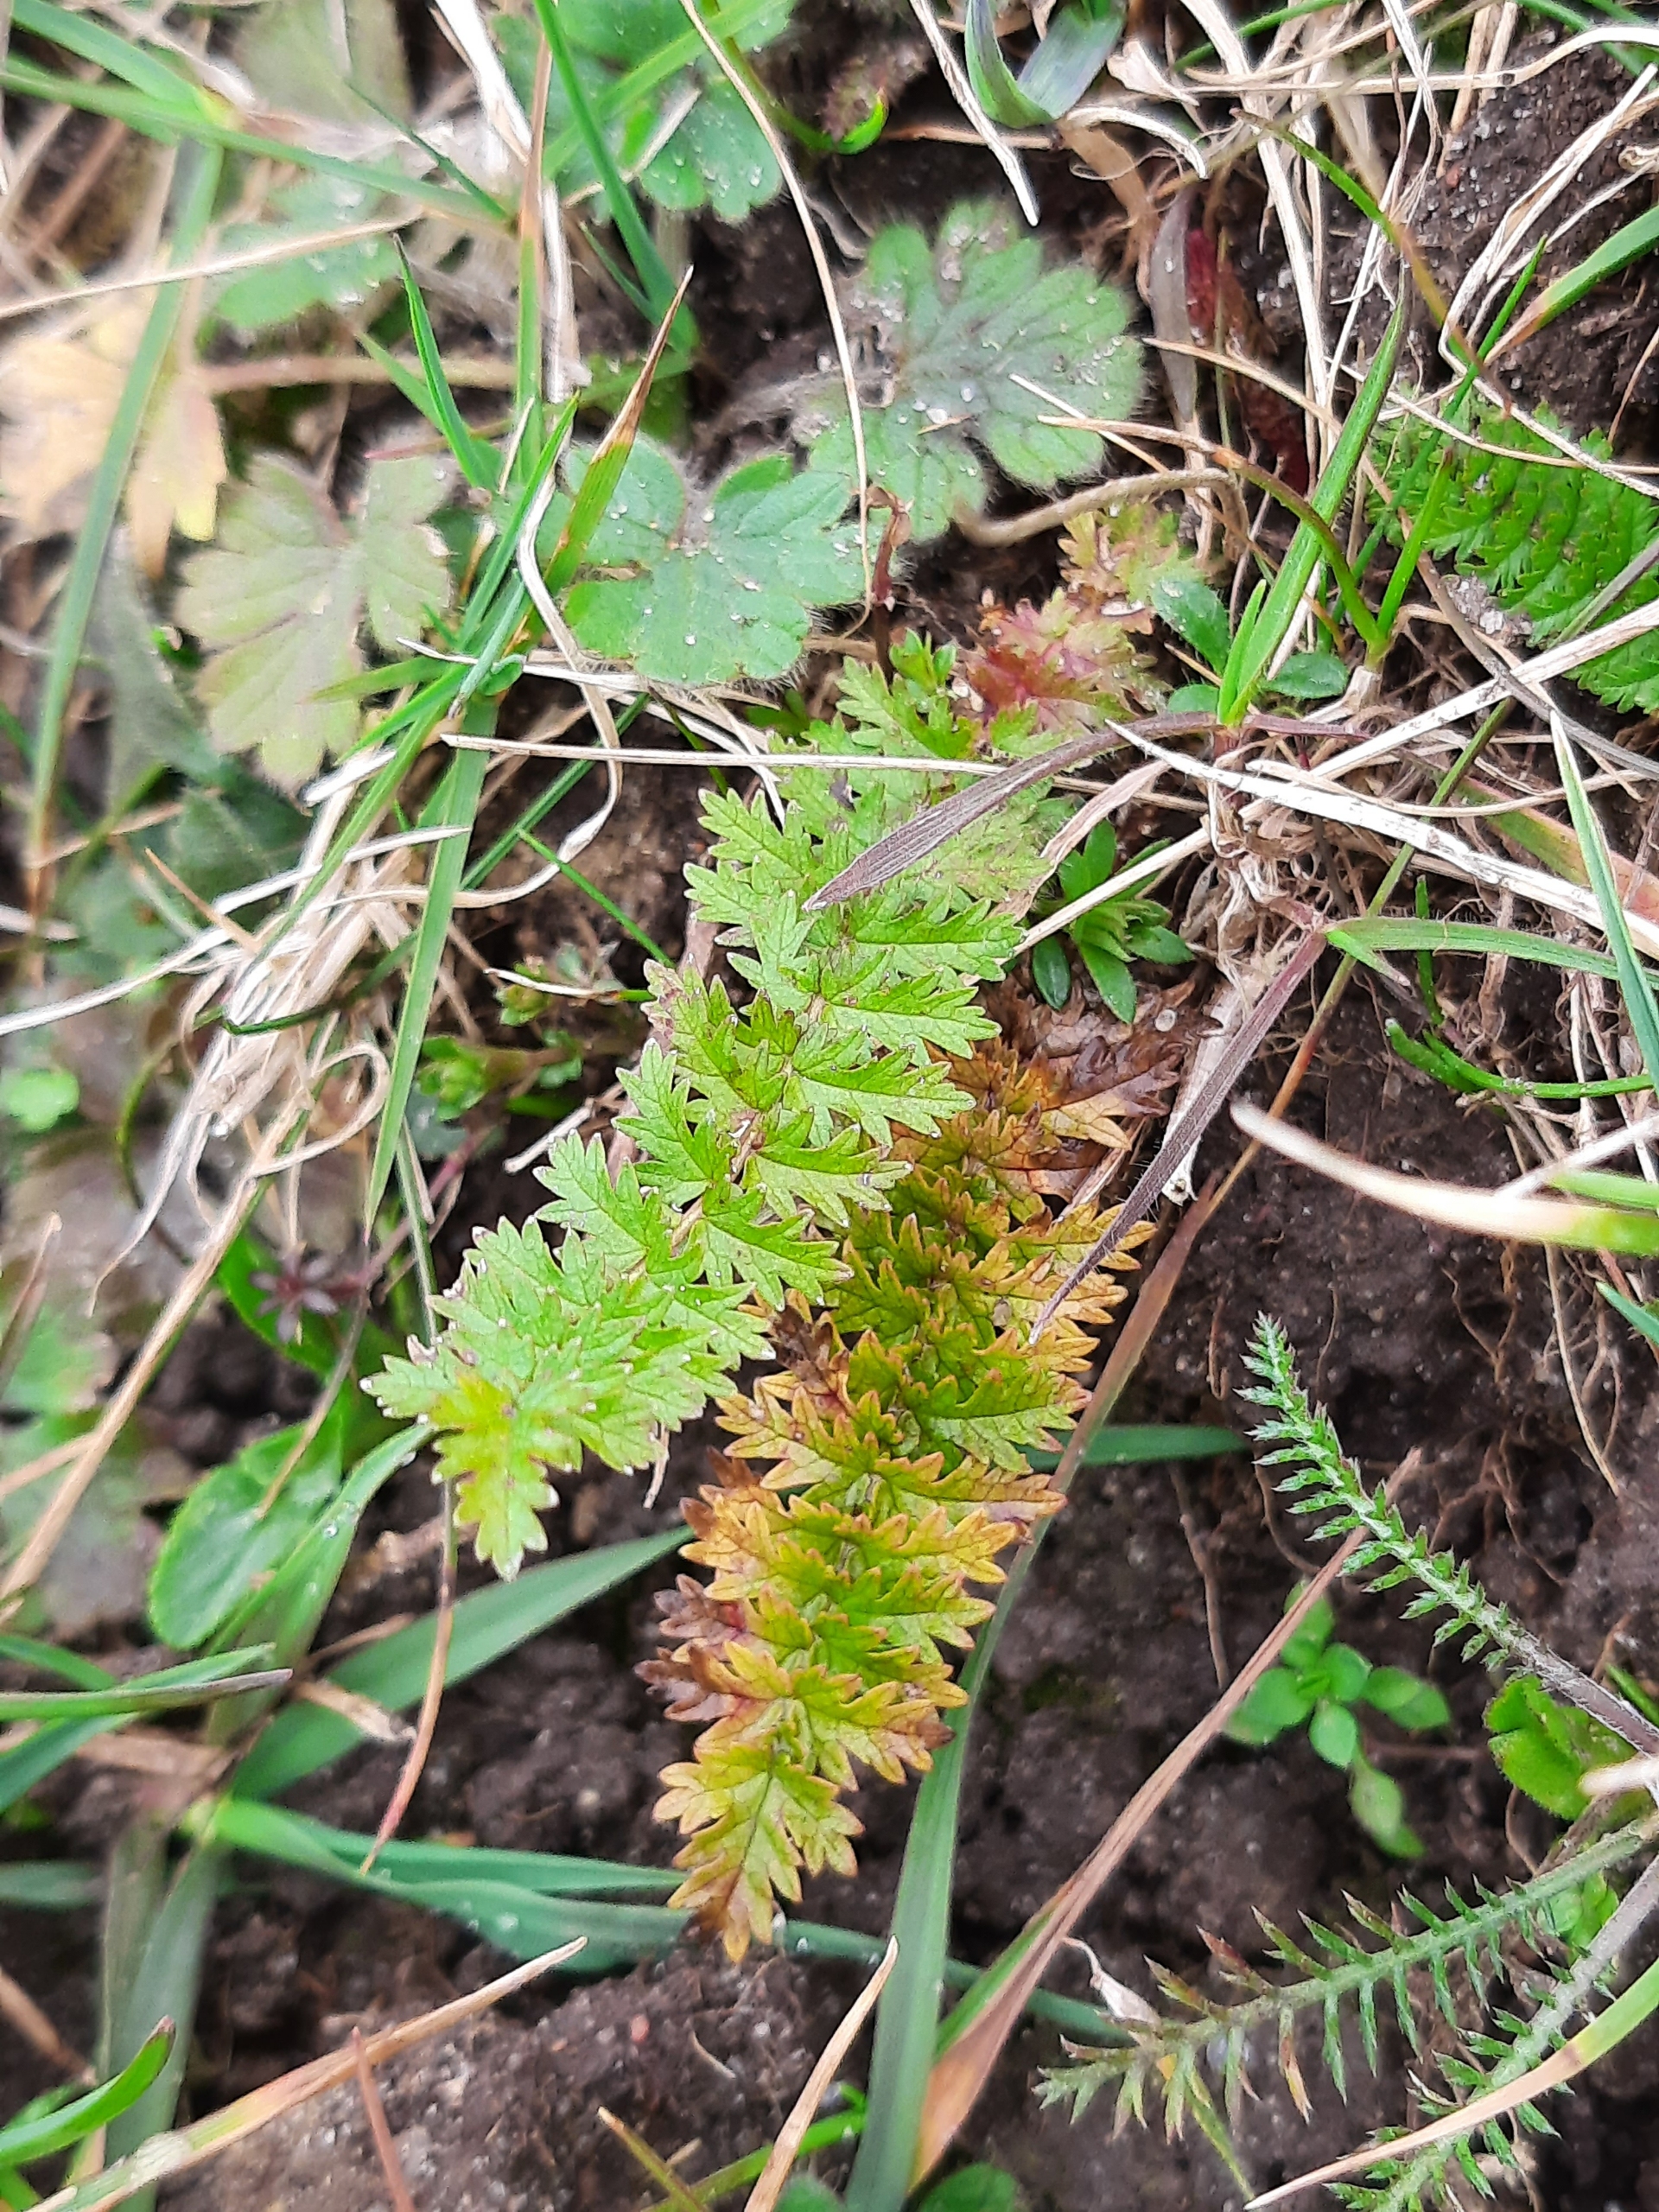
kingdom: Plantae
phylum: Tracheophyta
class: Magnoliopsida
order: Rosales
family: Rosaceae
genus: Filipendula
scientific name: Filipendula vulgaris
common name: Knoldet mjødurt
